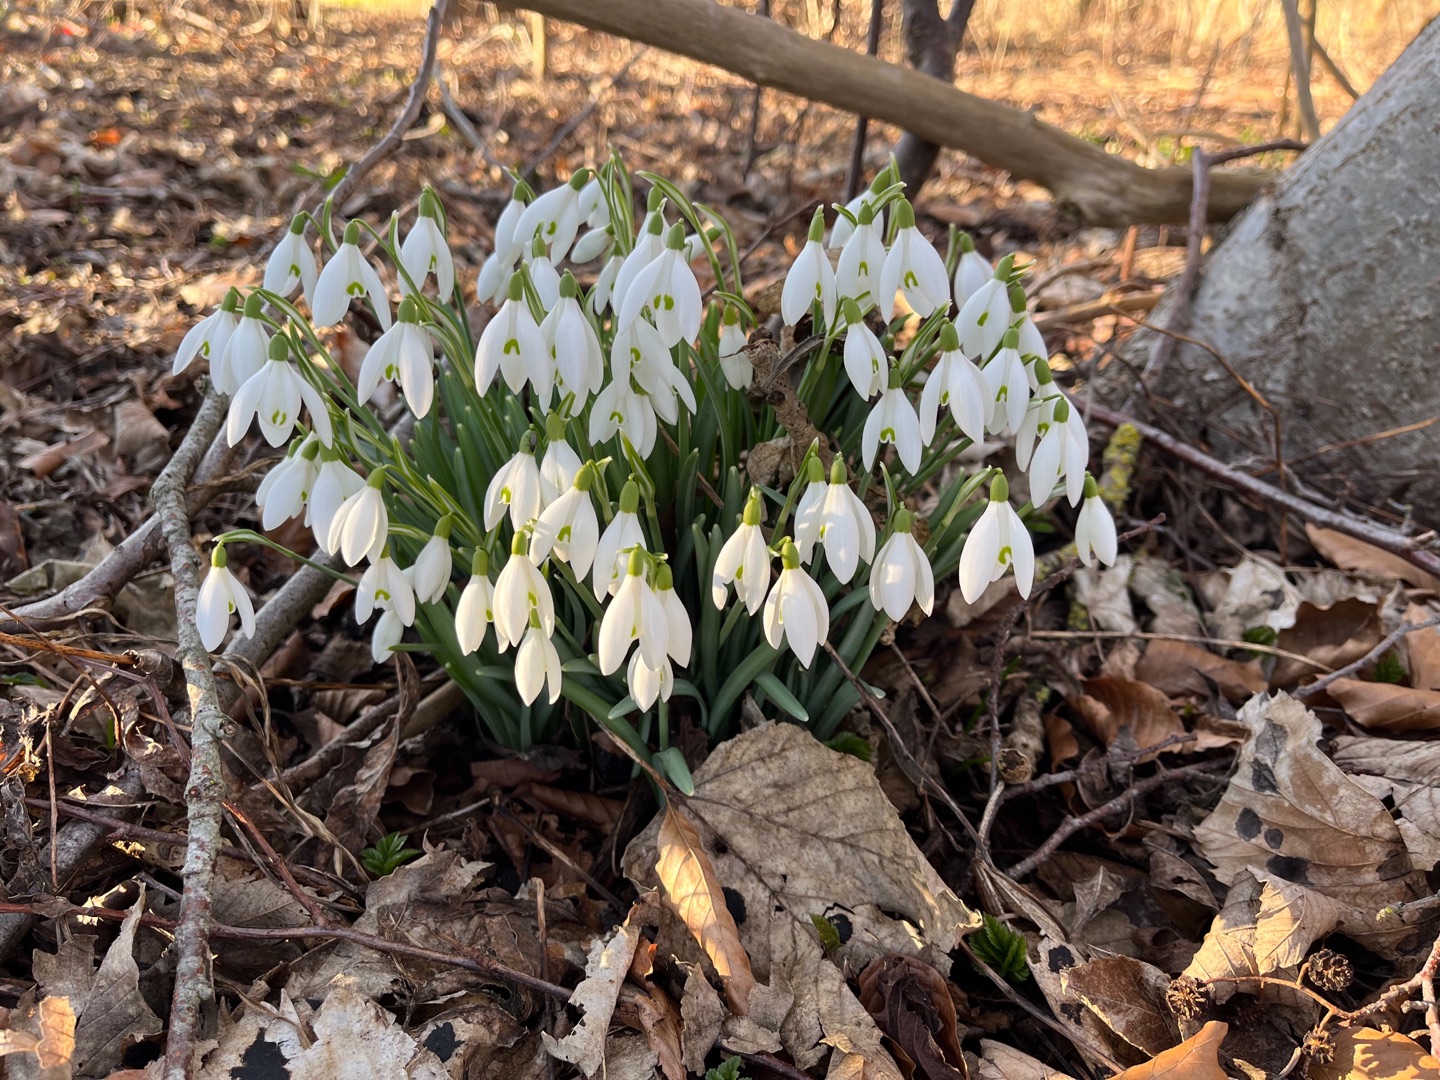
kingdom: Plantae
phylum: Tracheophyta
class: Liliopsida
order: Asparagales
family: Amaryllidaceae
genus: Galanthus
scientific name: Galanthus nivalis
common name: Vintergæk
